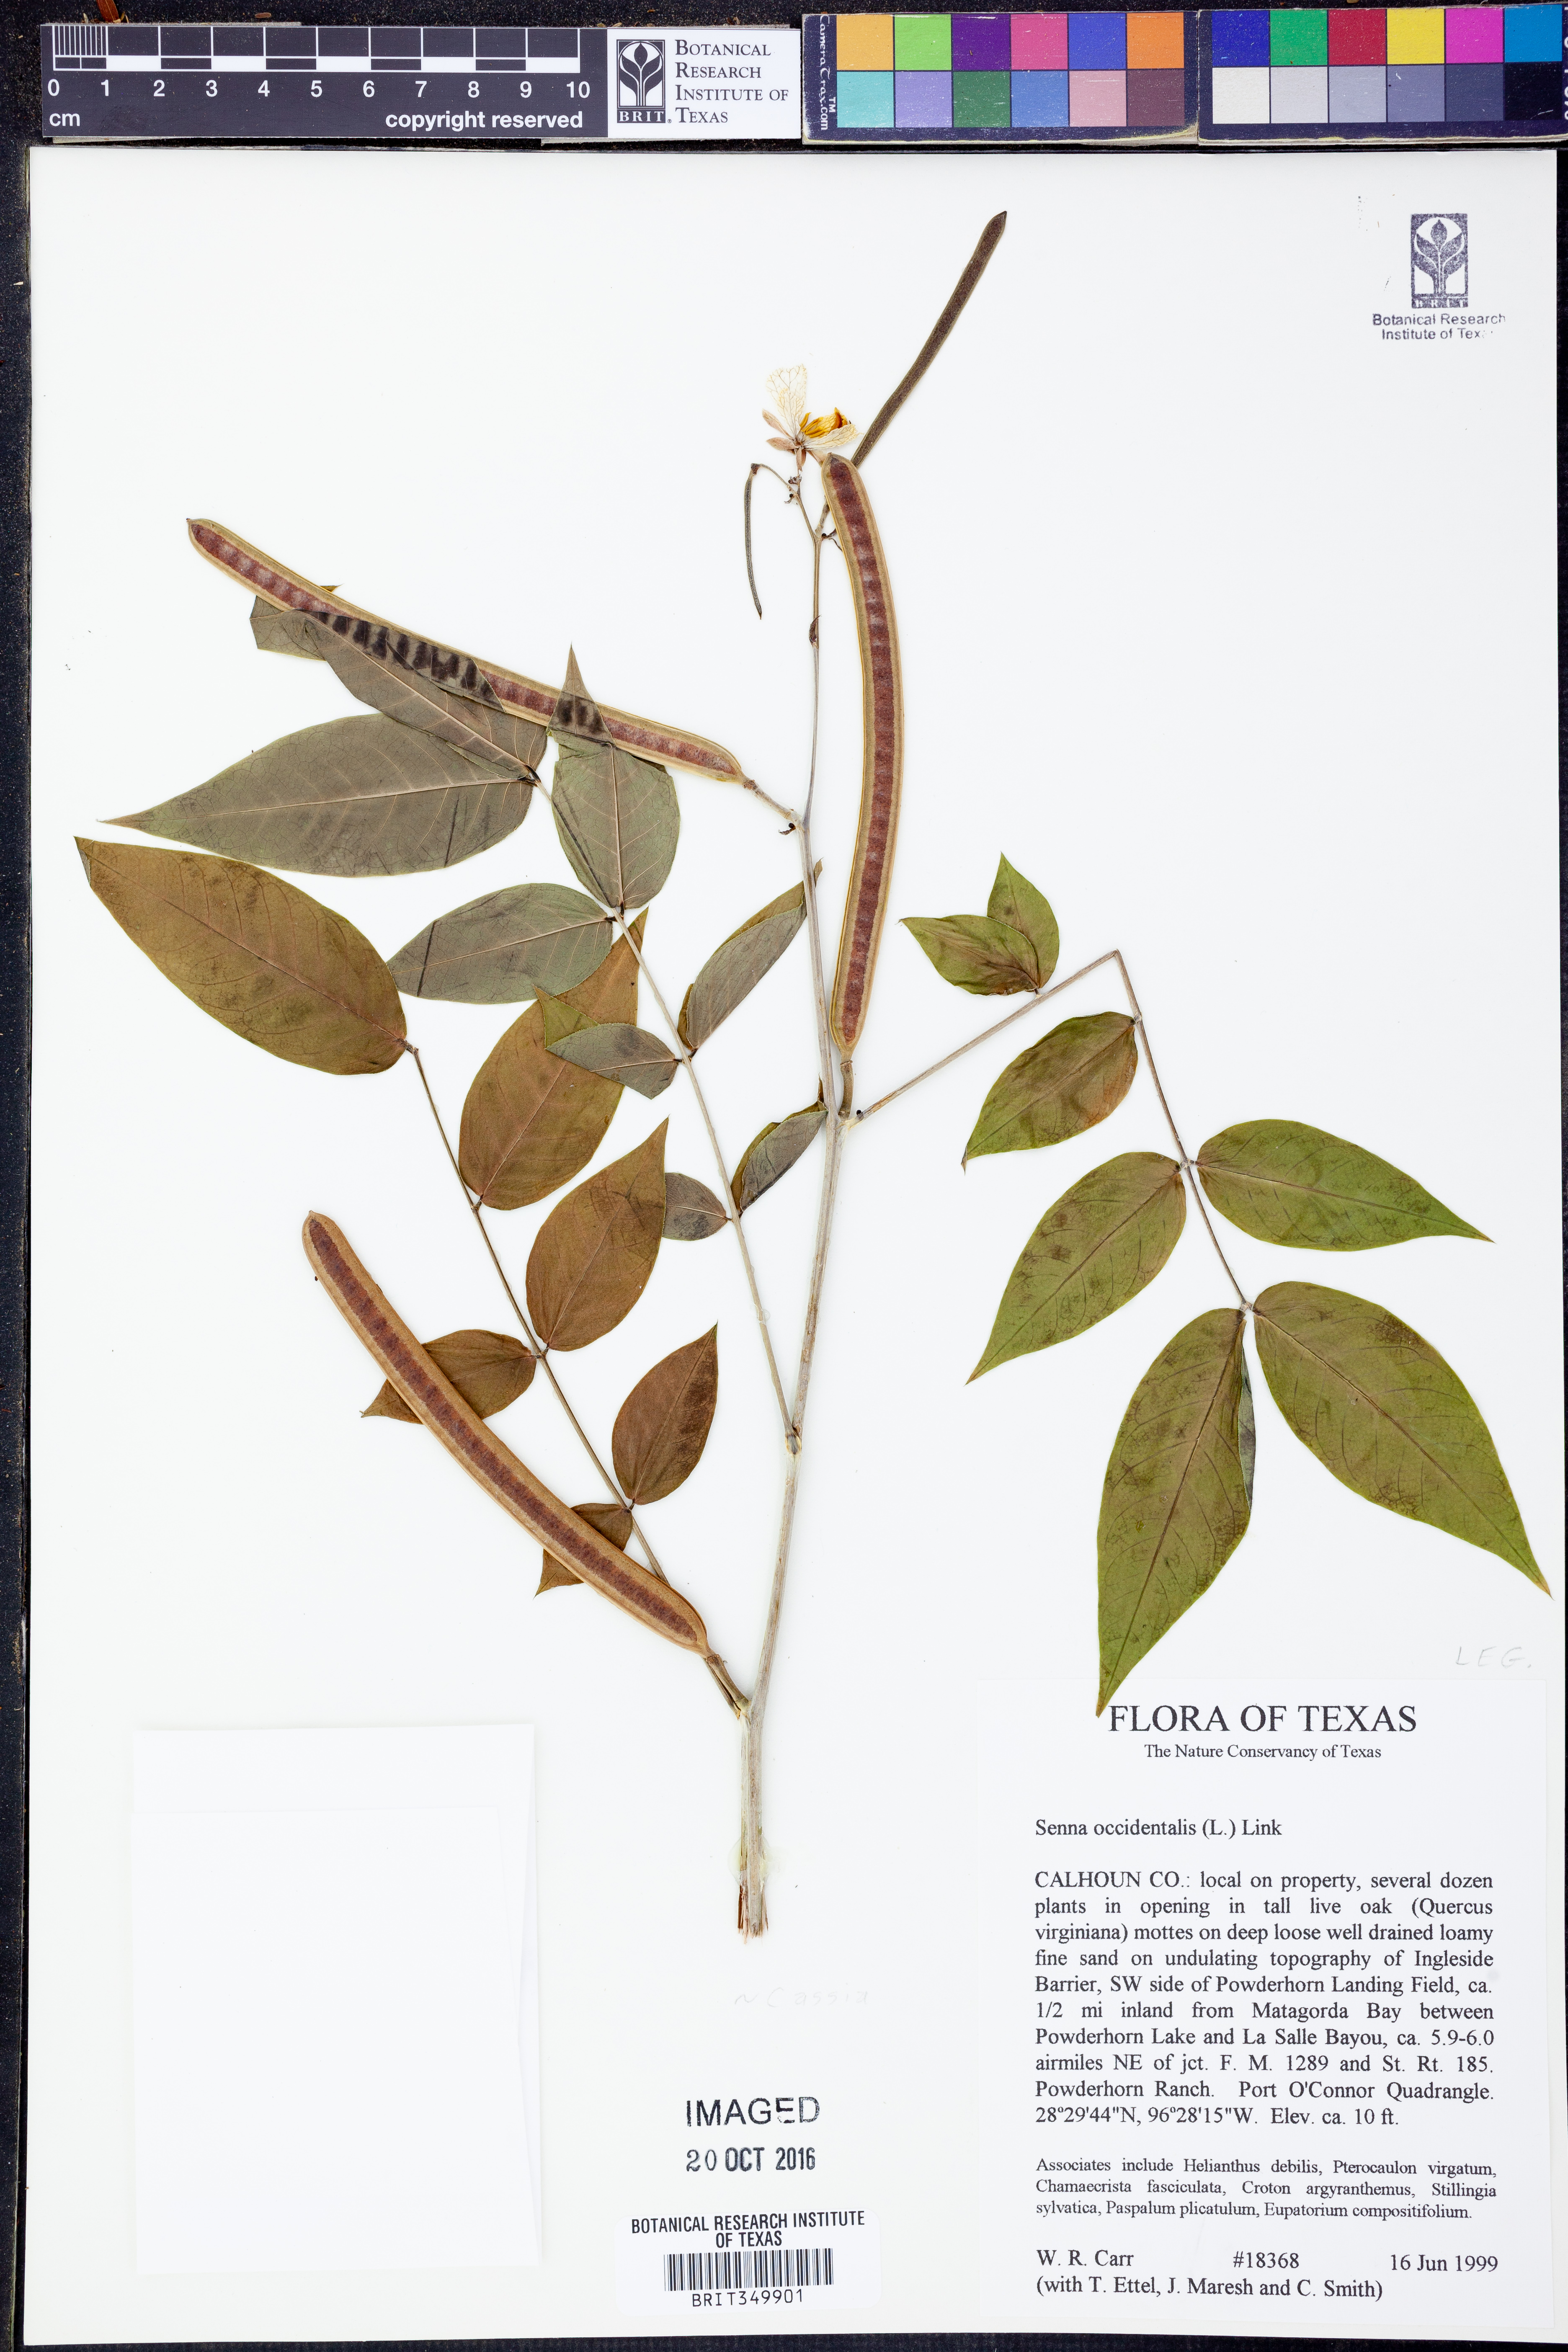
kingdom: Plantae
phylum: Tracheophyta
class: Magnoliopsida
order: Fabales
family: Fabaceae
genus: Senna
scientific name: Senna occidentalis
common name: Septicweed
